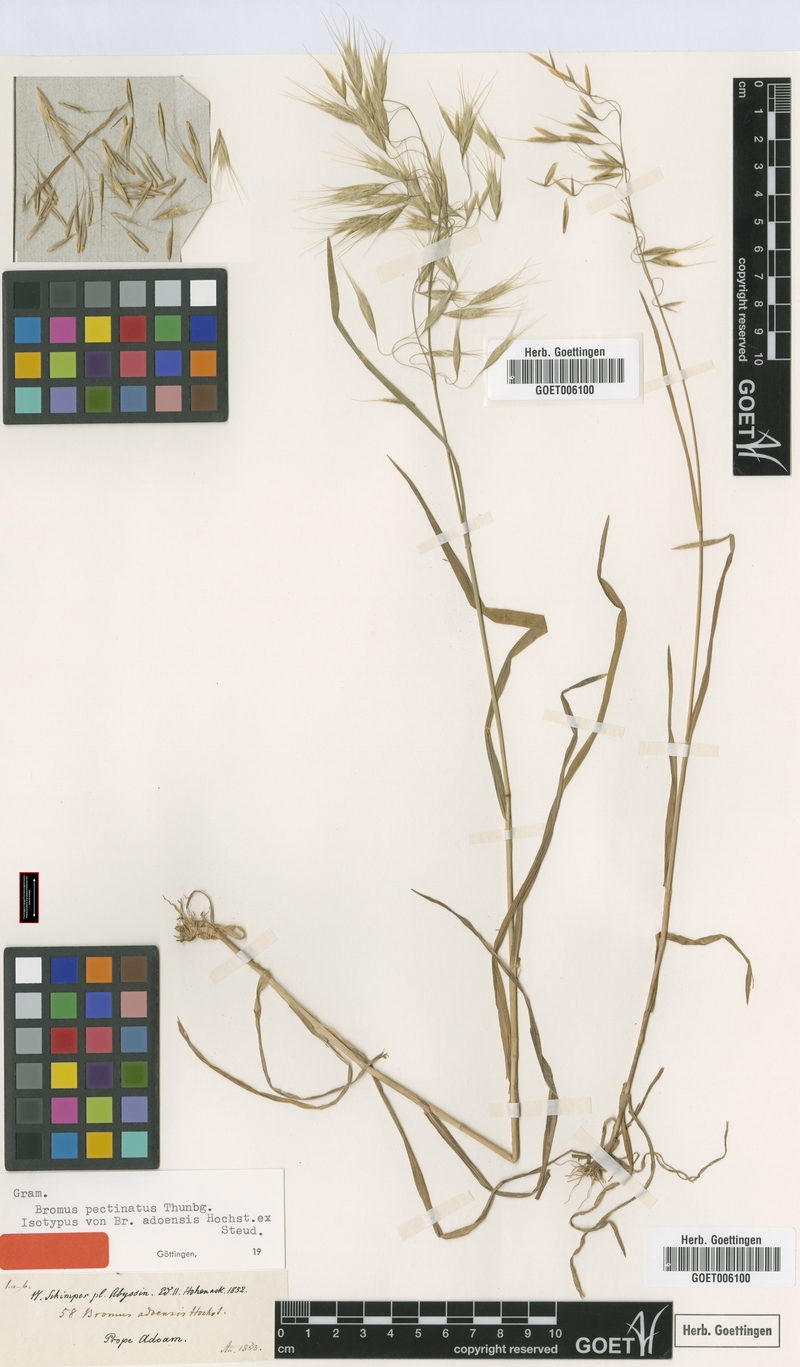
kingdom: Plantae
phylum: Tracheophyta
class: Liliopsida
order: Poales
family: Poaceae
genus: Bromus
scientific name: Bromus pectinatus
